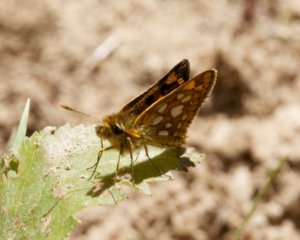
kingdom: Animalia
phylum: Arthropoda
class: Insecta
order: Lepidoptera
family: Hesperiidae
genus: Carterocephalus
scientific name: Carterocephalus palaemon
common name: Chequered Skipper
